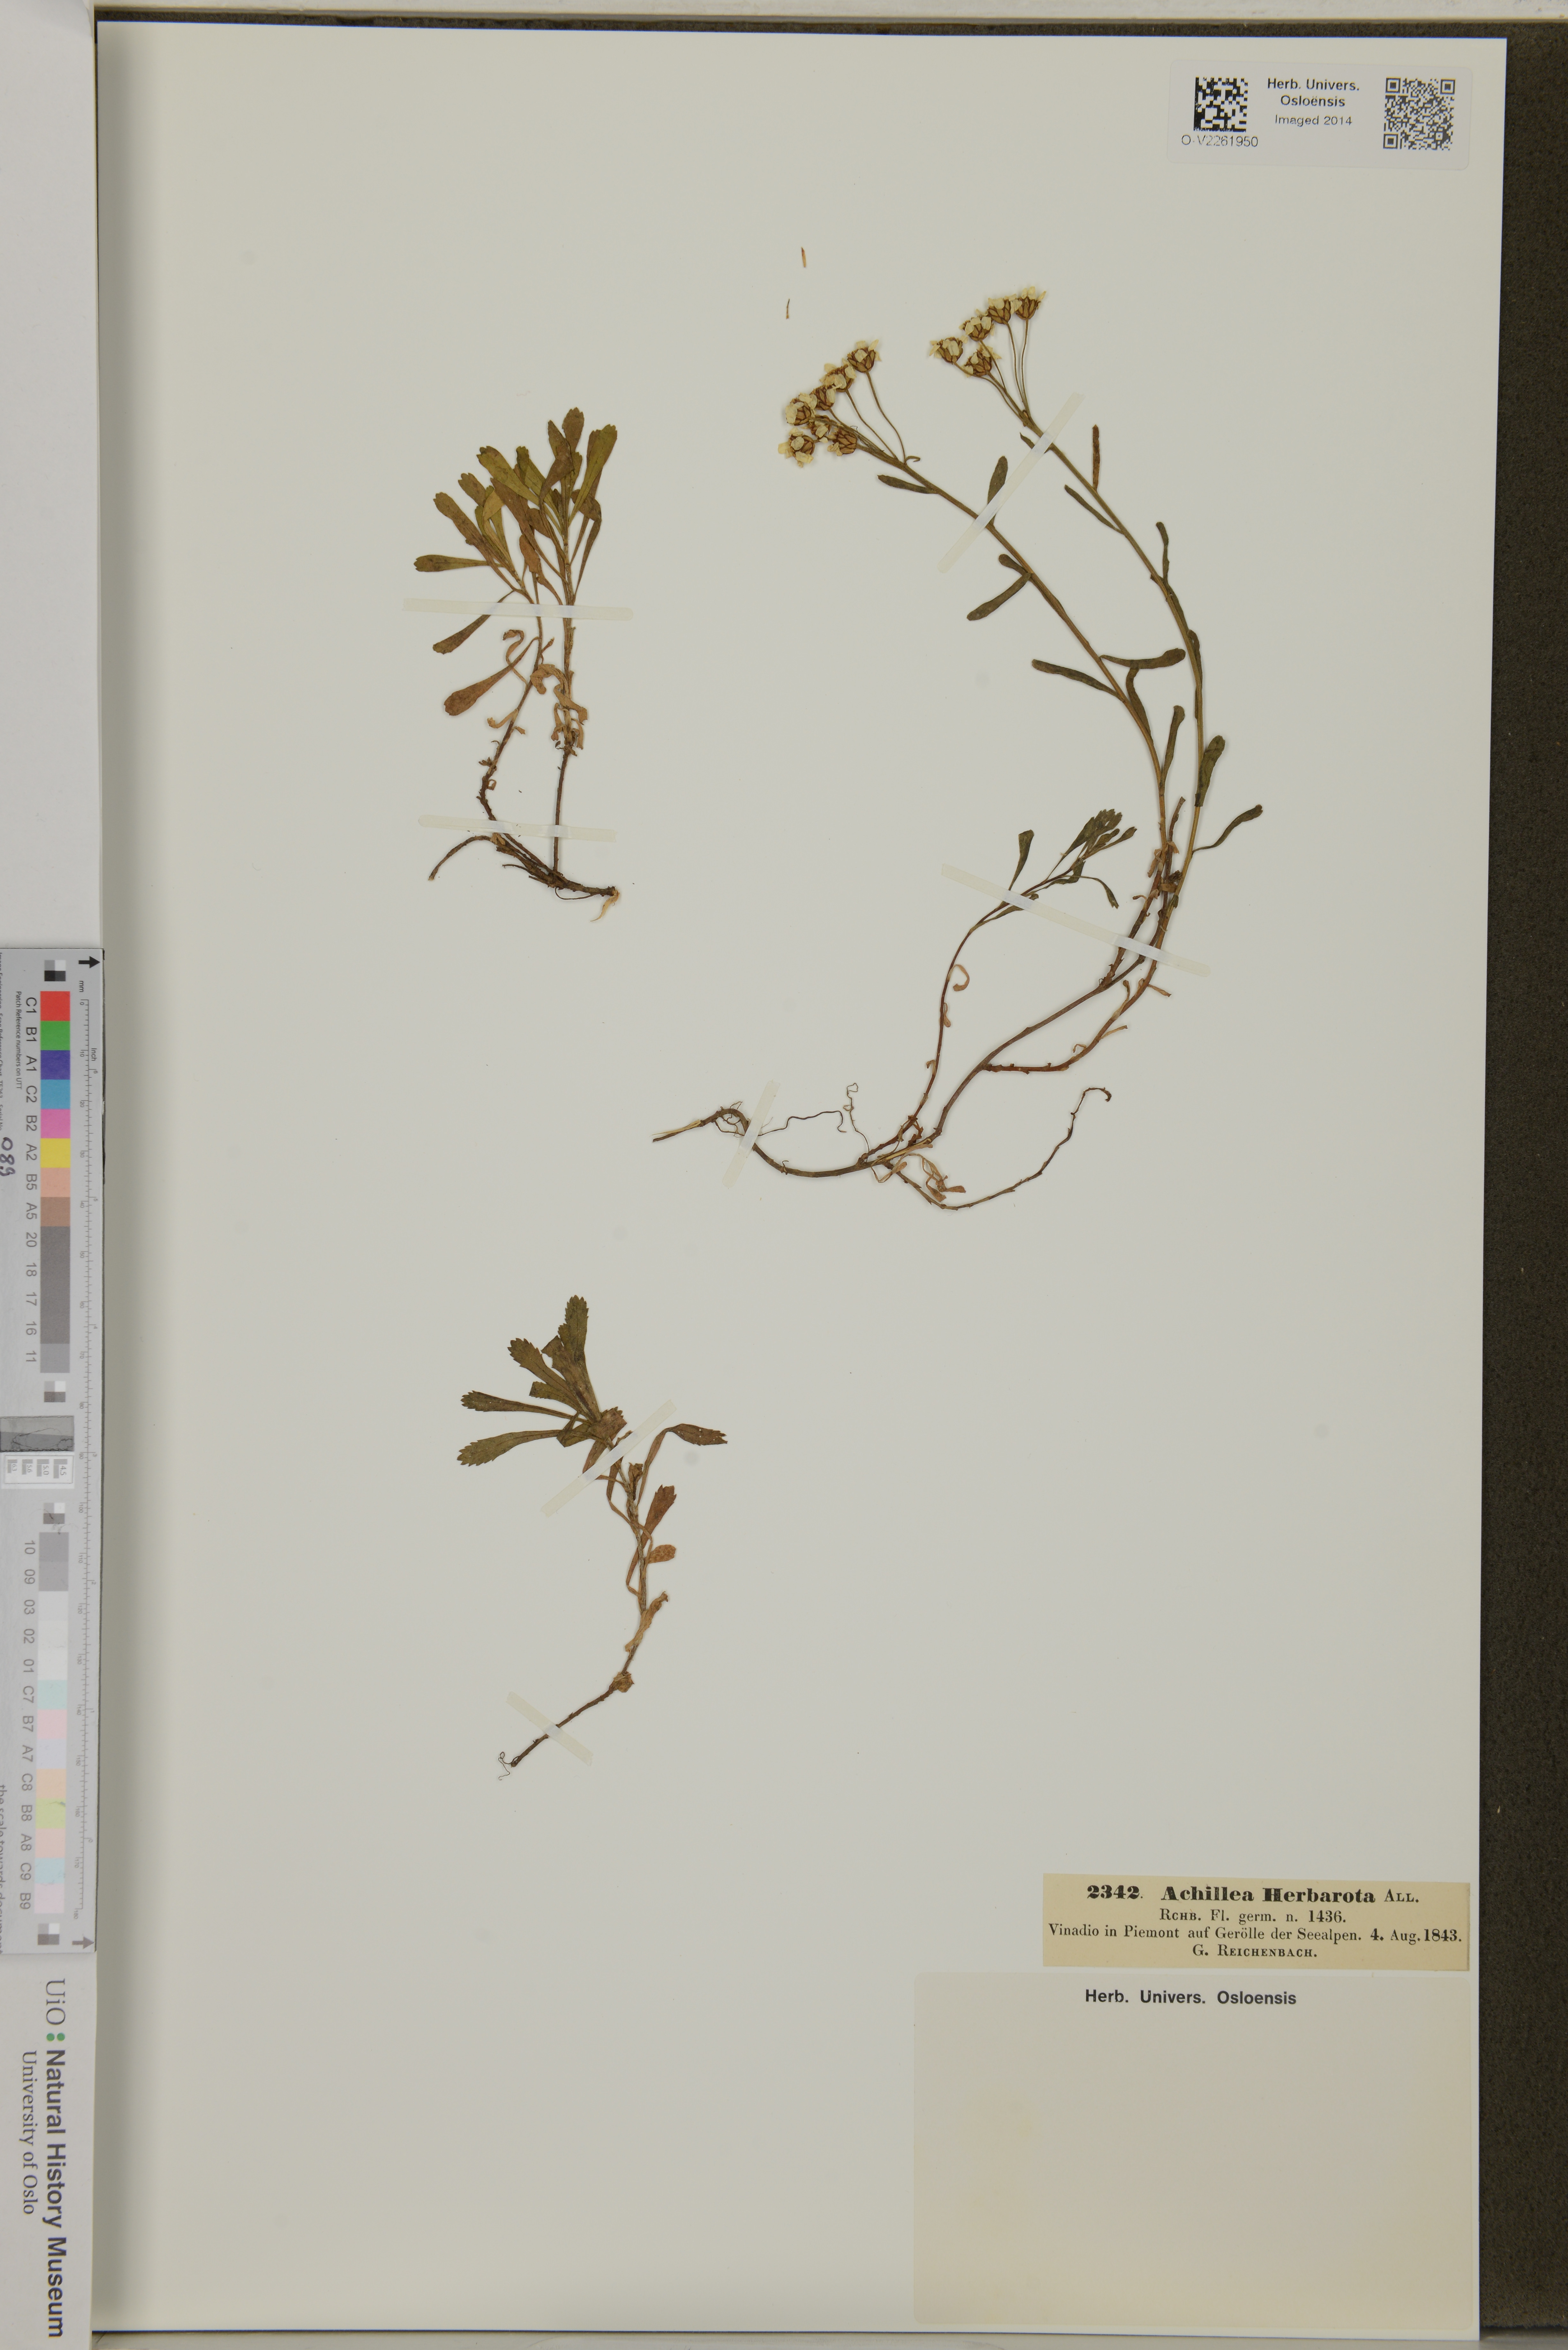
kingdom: Plantae
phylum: Tracheophyta
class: Magnoliopsida
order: Asterales
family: Asteraceae
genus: Achillea
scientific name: Achillea erba-rotta
